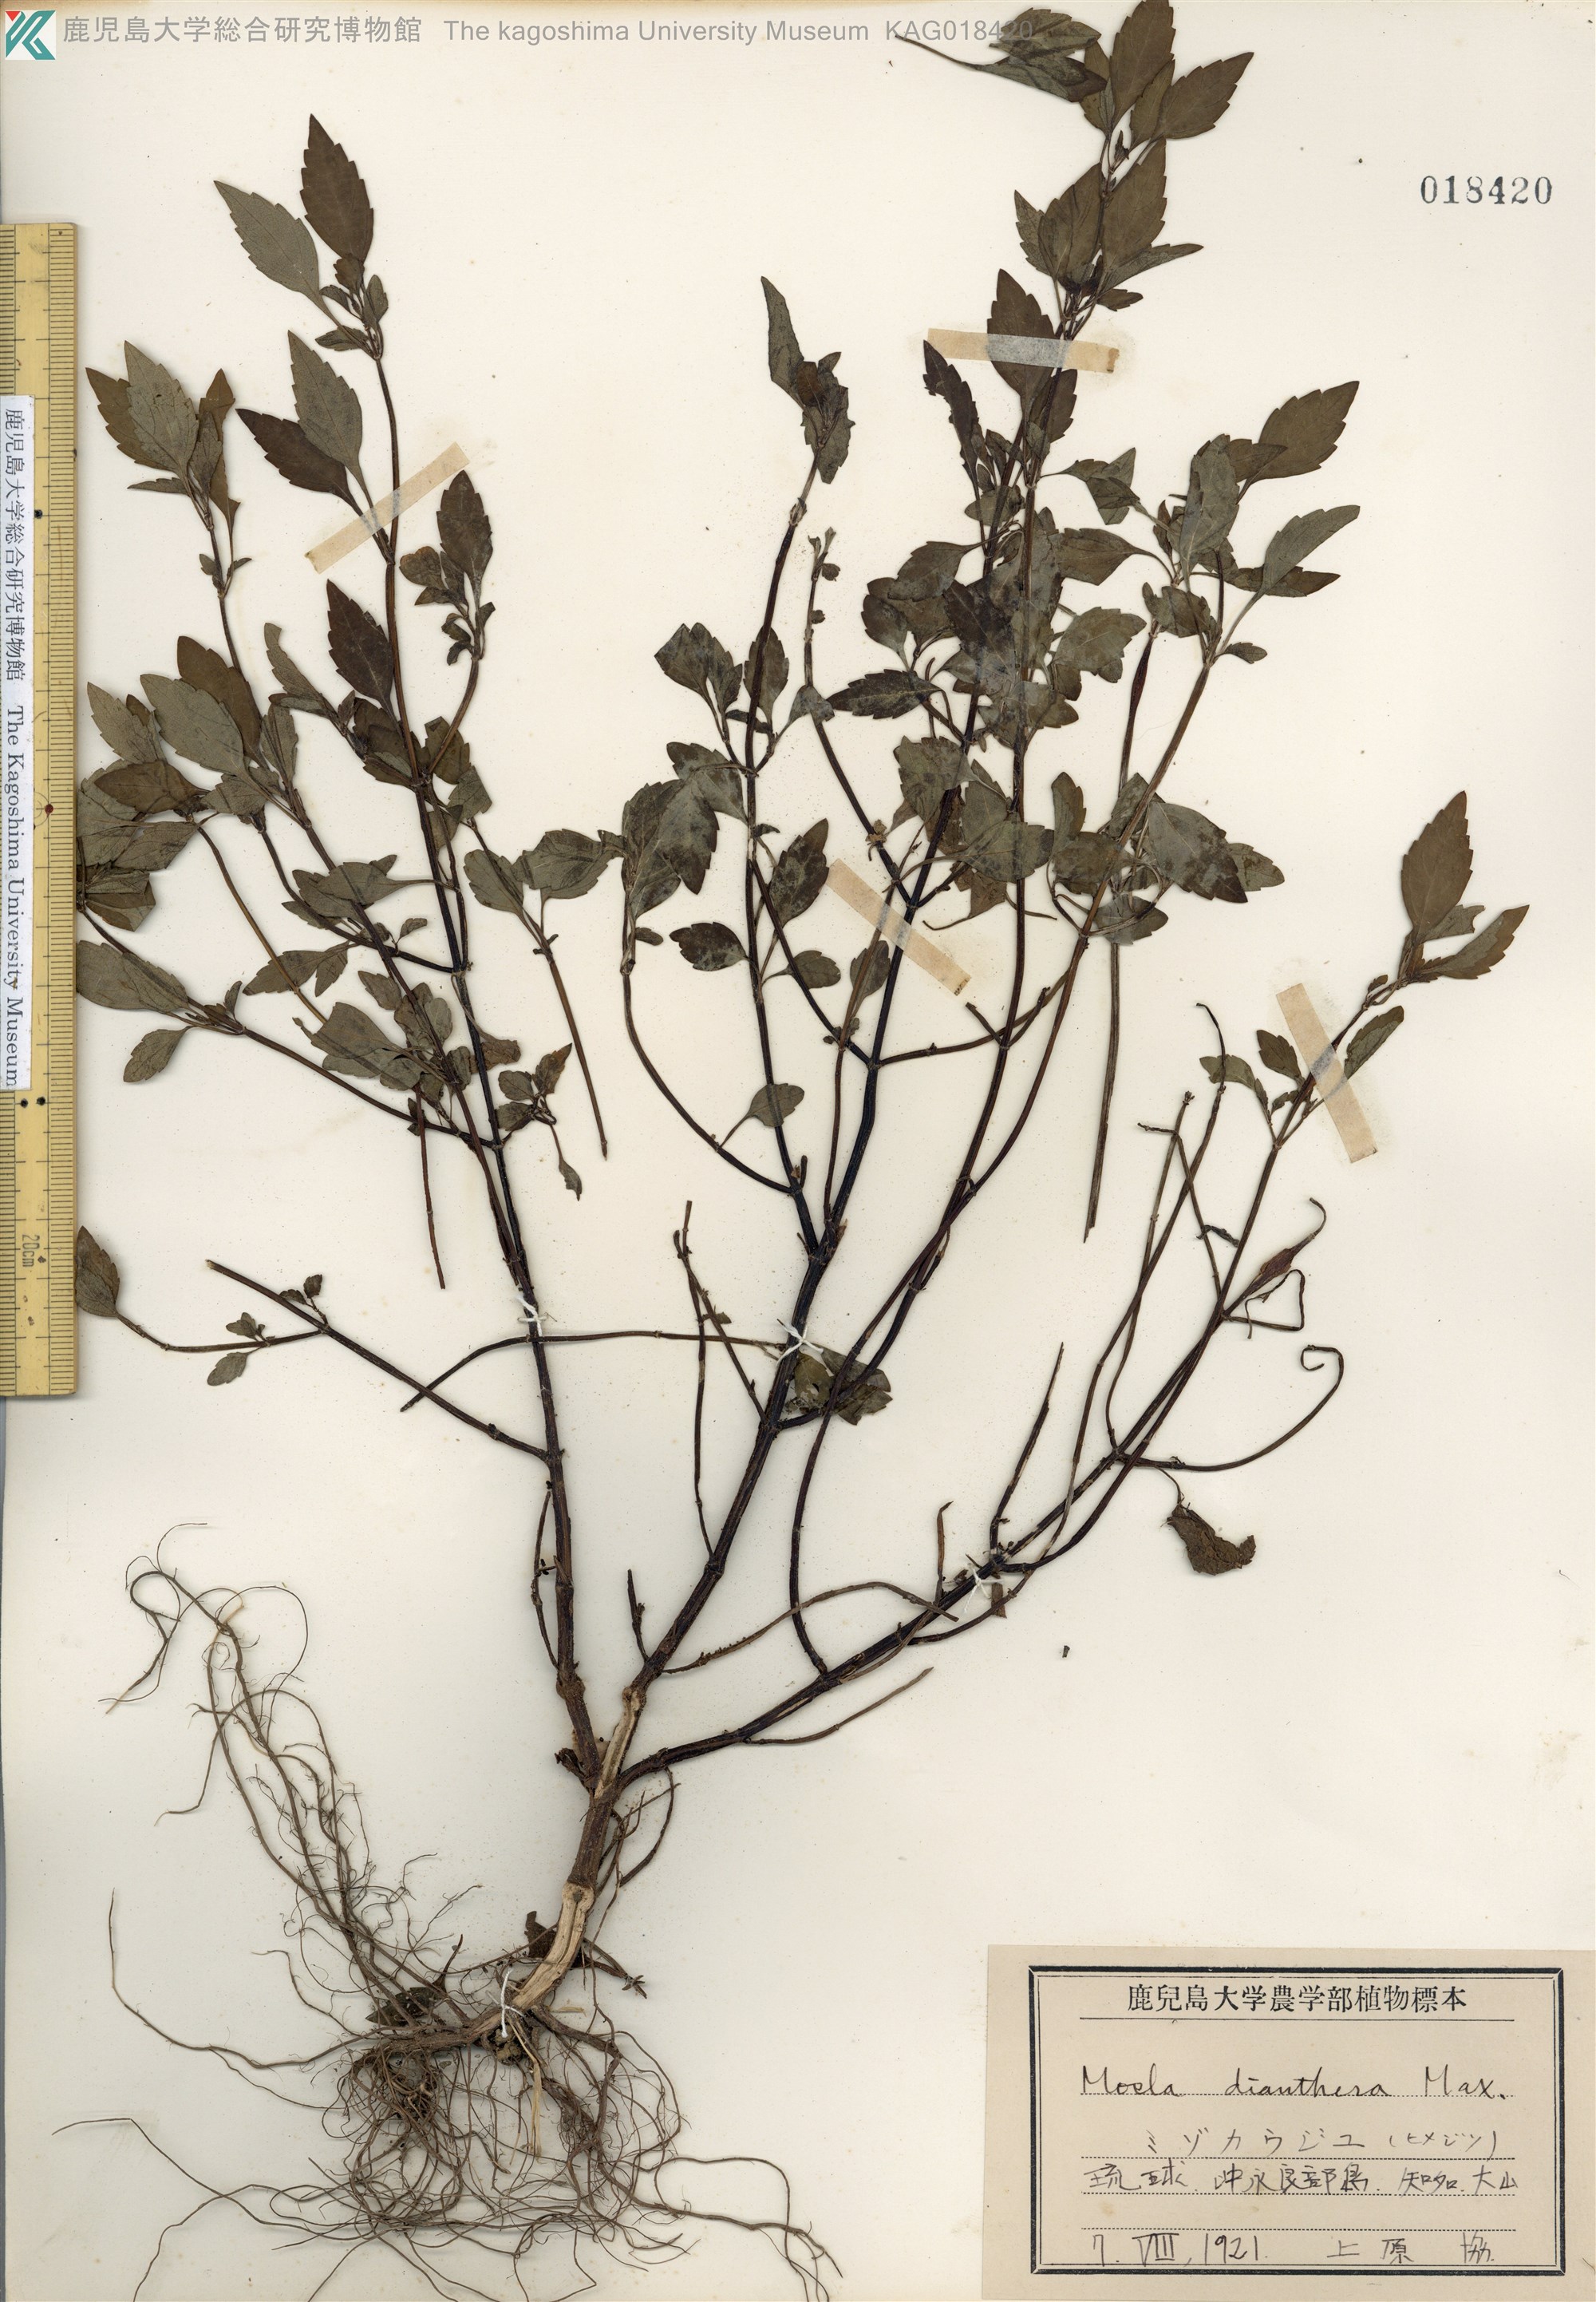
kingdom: Plantae
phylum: Tracheophyta
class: Magnoliopsida
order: Lamiales
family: Lamiaceae
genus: Mosla
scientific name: Mosla dianthera
